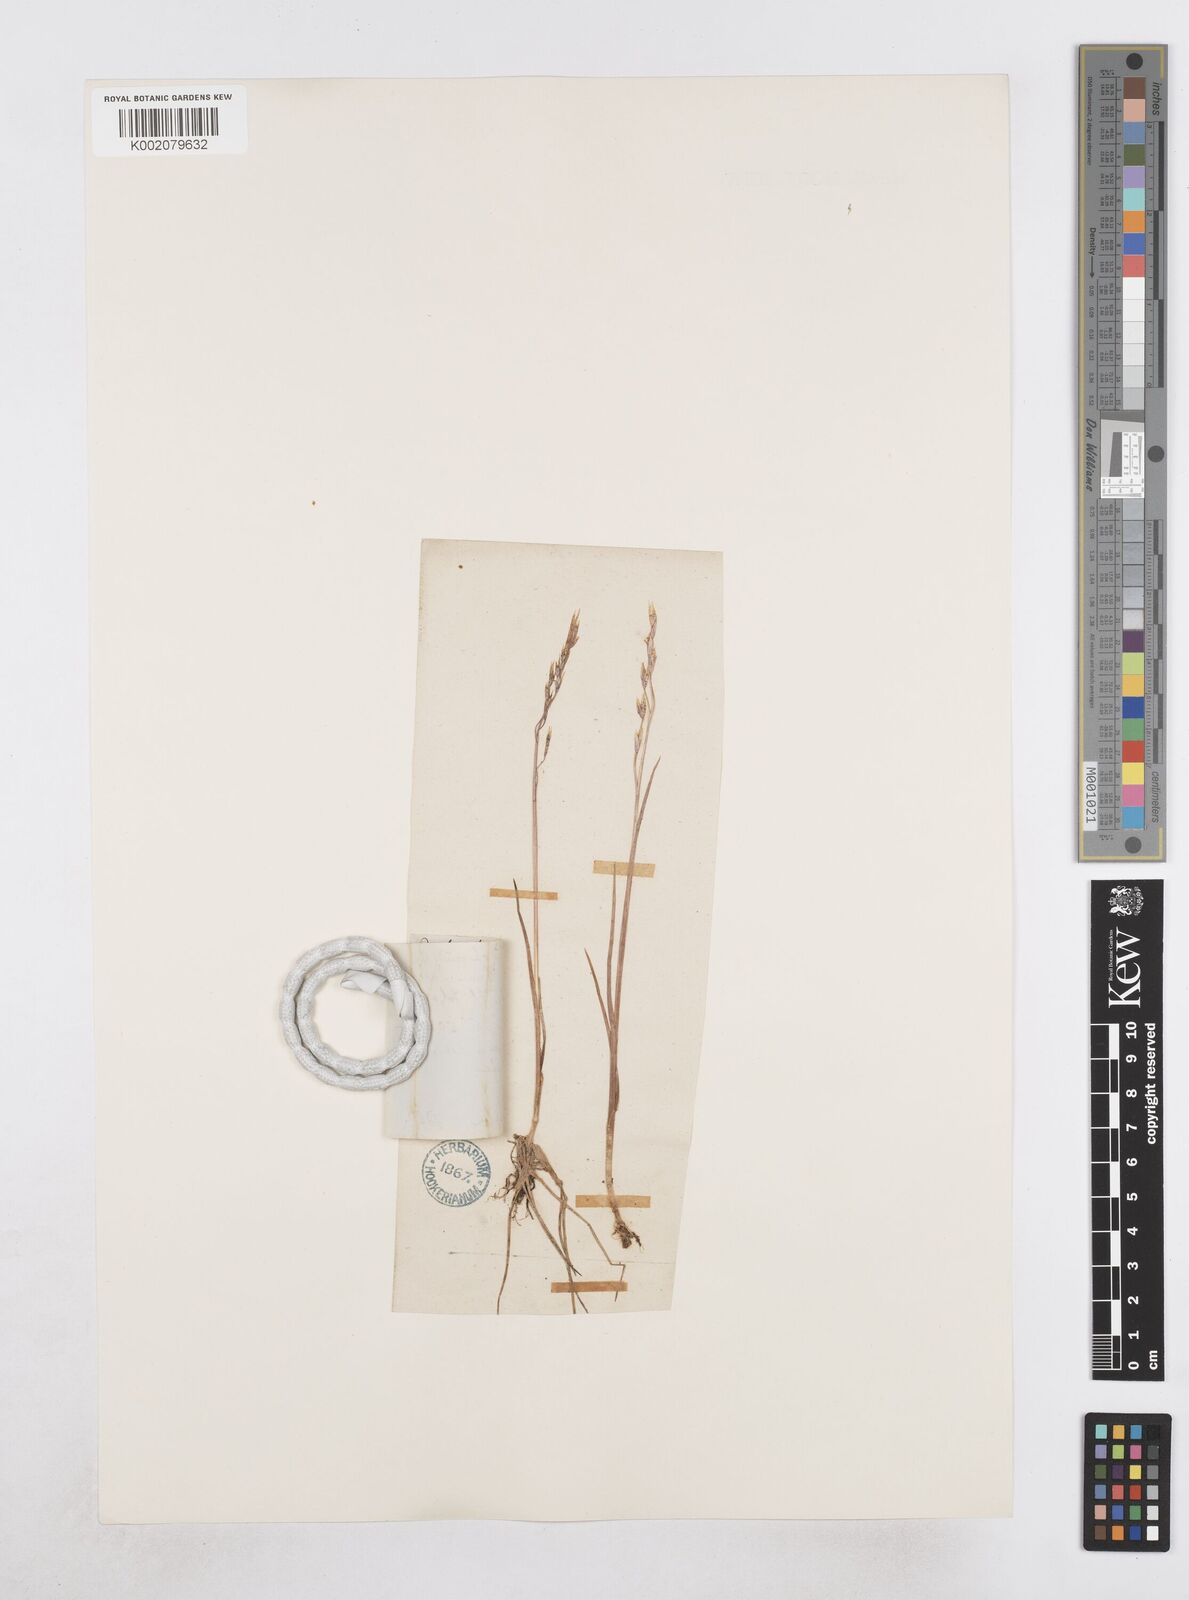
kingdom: Plantae
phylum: Tracheophyta
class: Liliopsida
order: Poales
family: Poaceae
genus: Dupontia
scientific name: Dupontia fisheri
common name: Tundra grass
